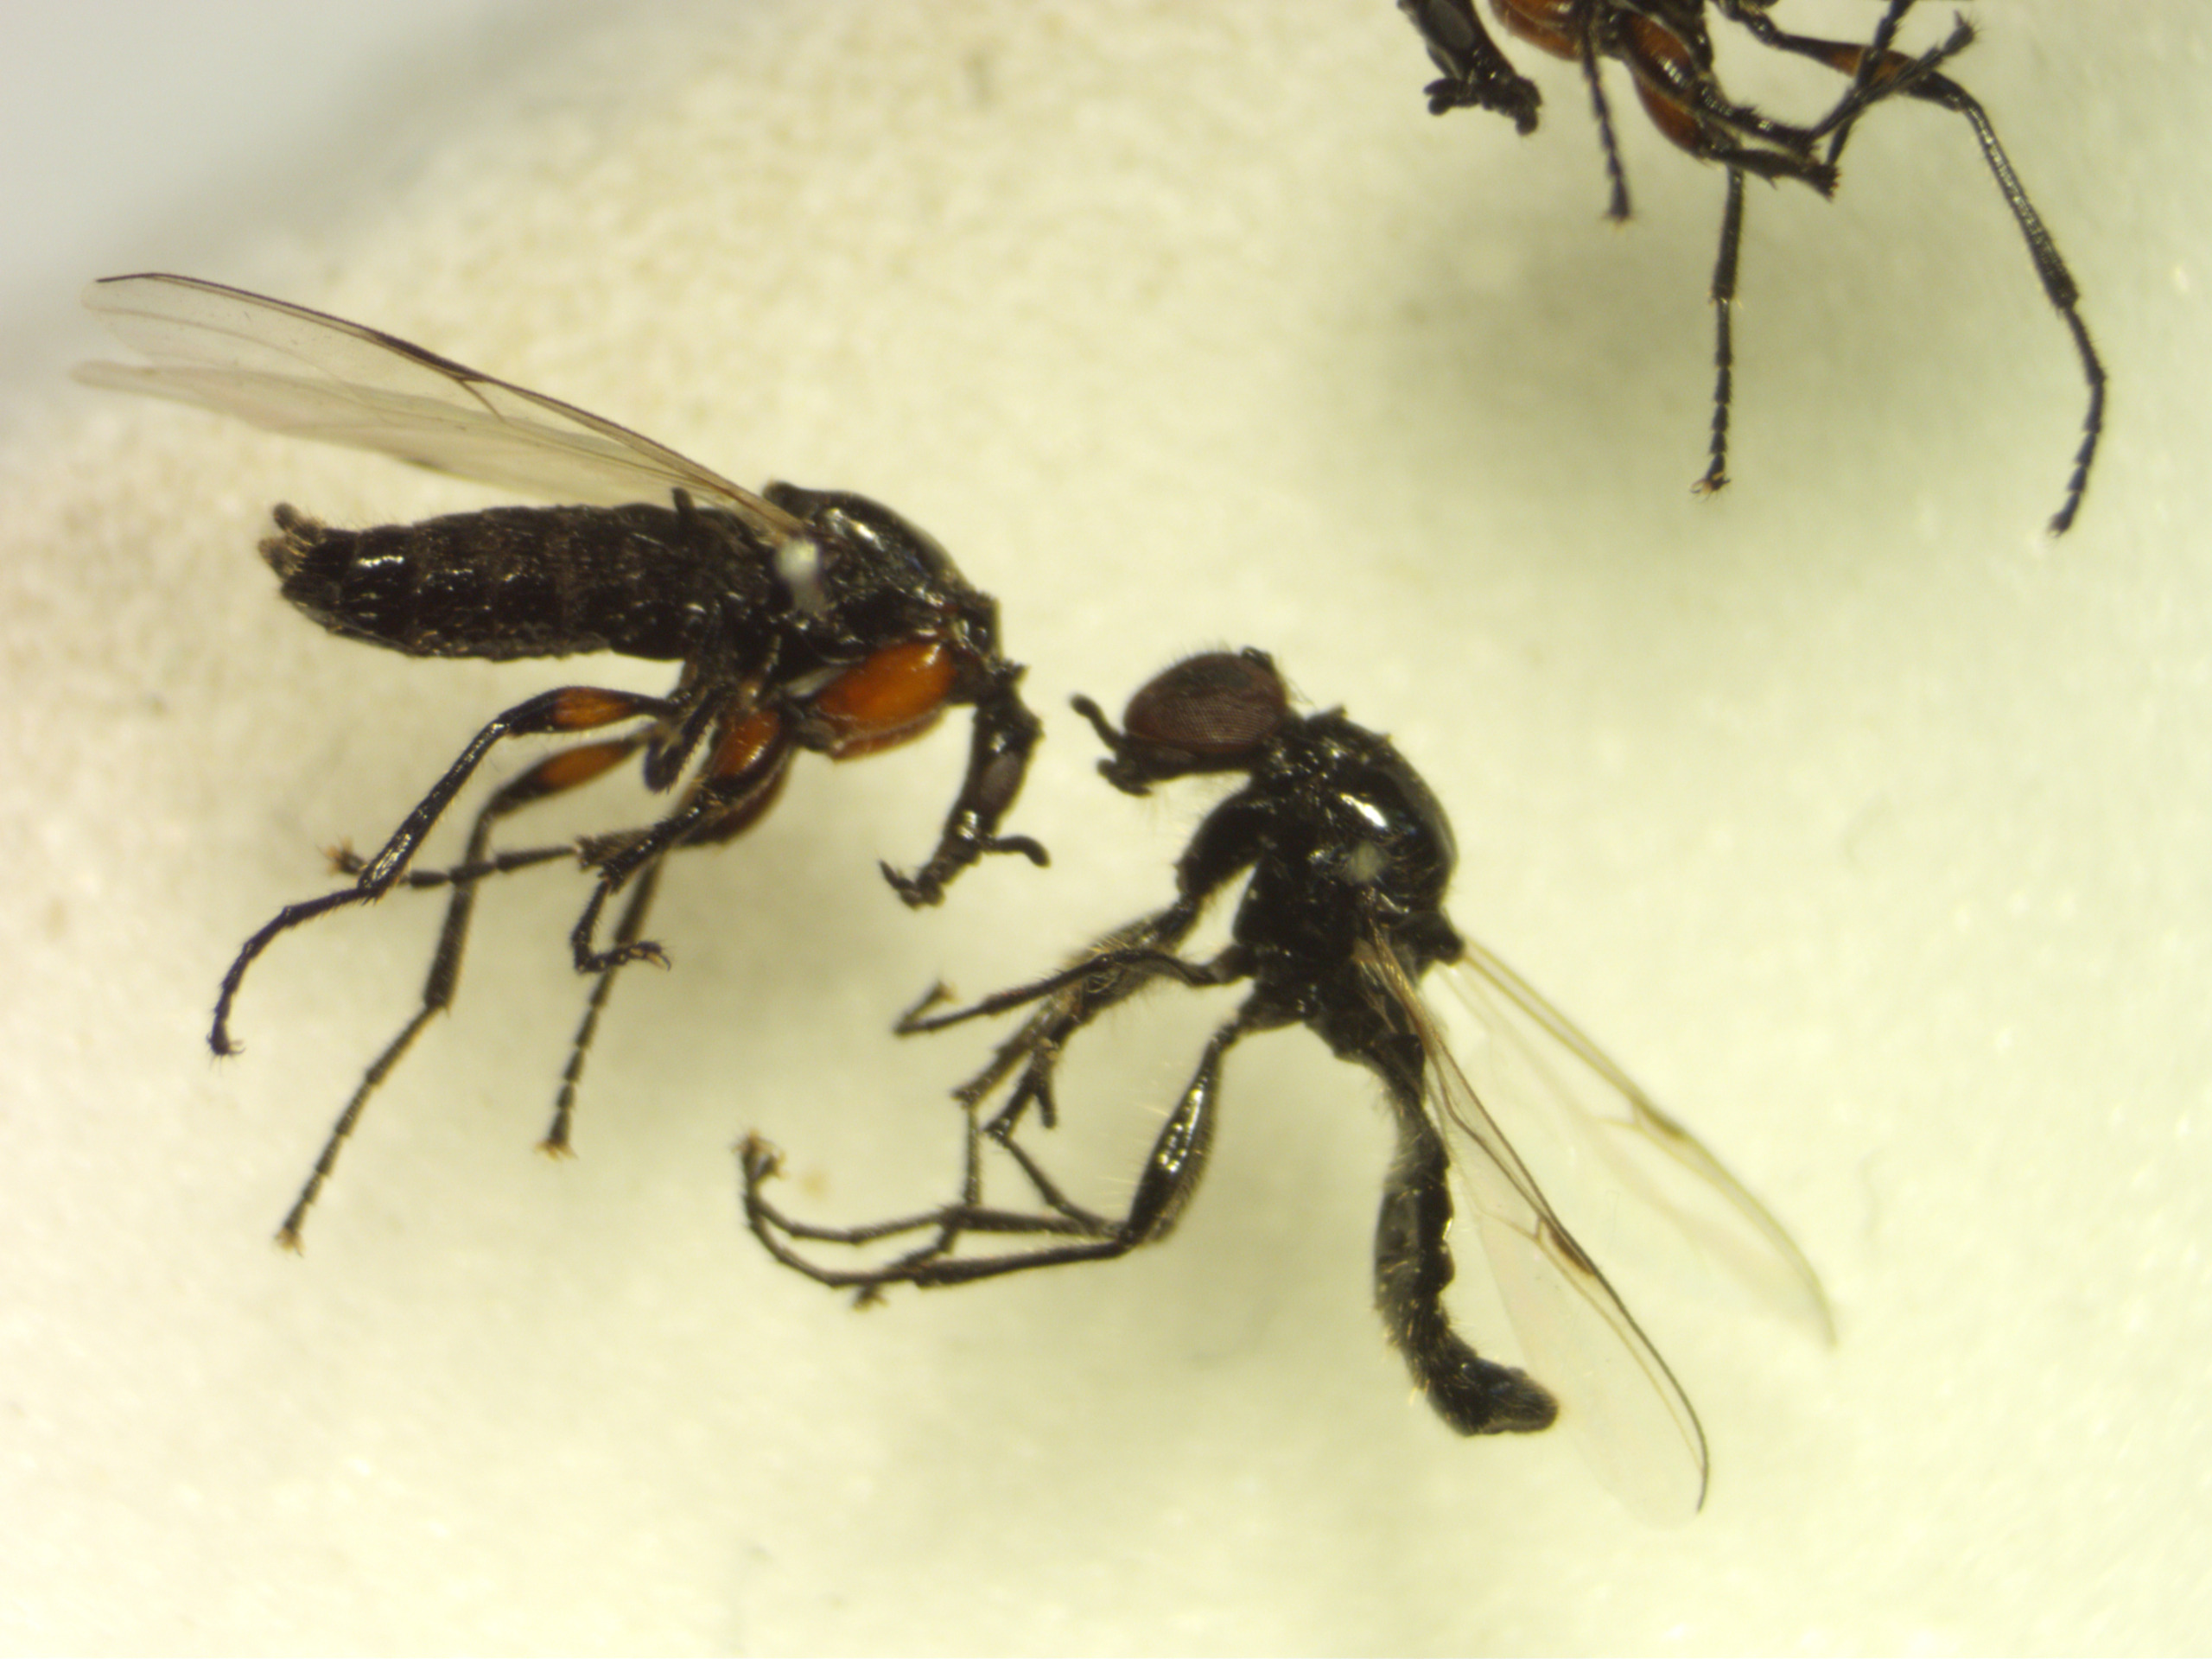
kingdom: Animalia
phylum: Arthropoda
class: Insecta
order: Diptera
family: Bibionidae
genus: Dilophus
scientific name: Dilophus femoratus
